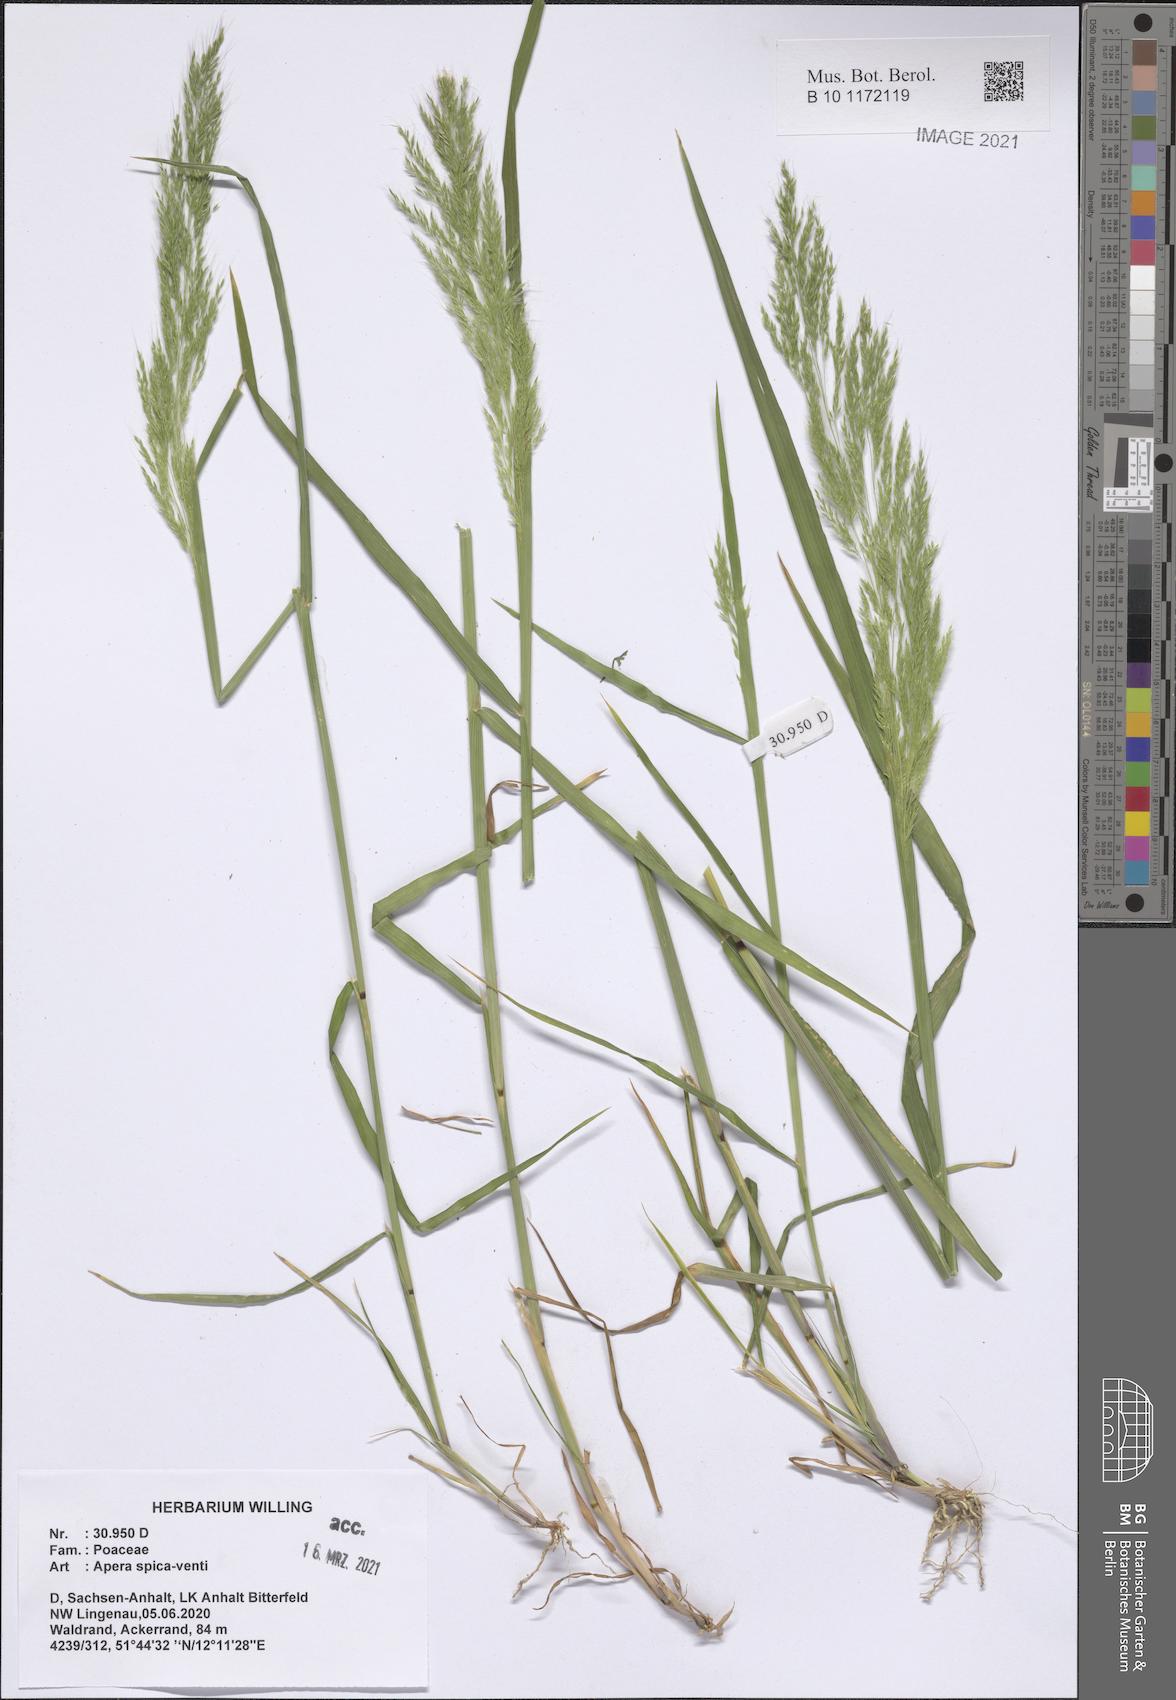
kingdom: Plantae
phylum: Tracheophyta
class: Liliopsida
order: Poales
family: Poaceae
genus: Apera
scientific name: Apera spica-venti
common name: Loose silky-bent
